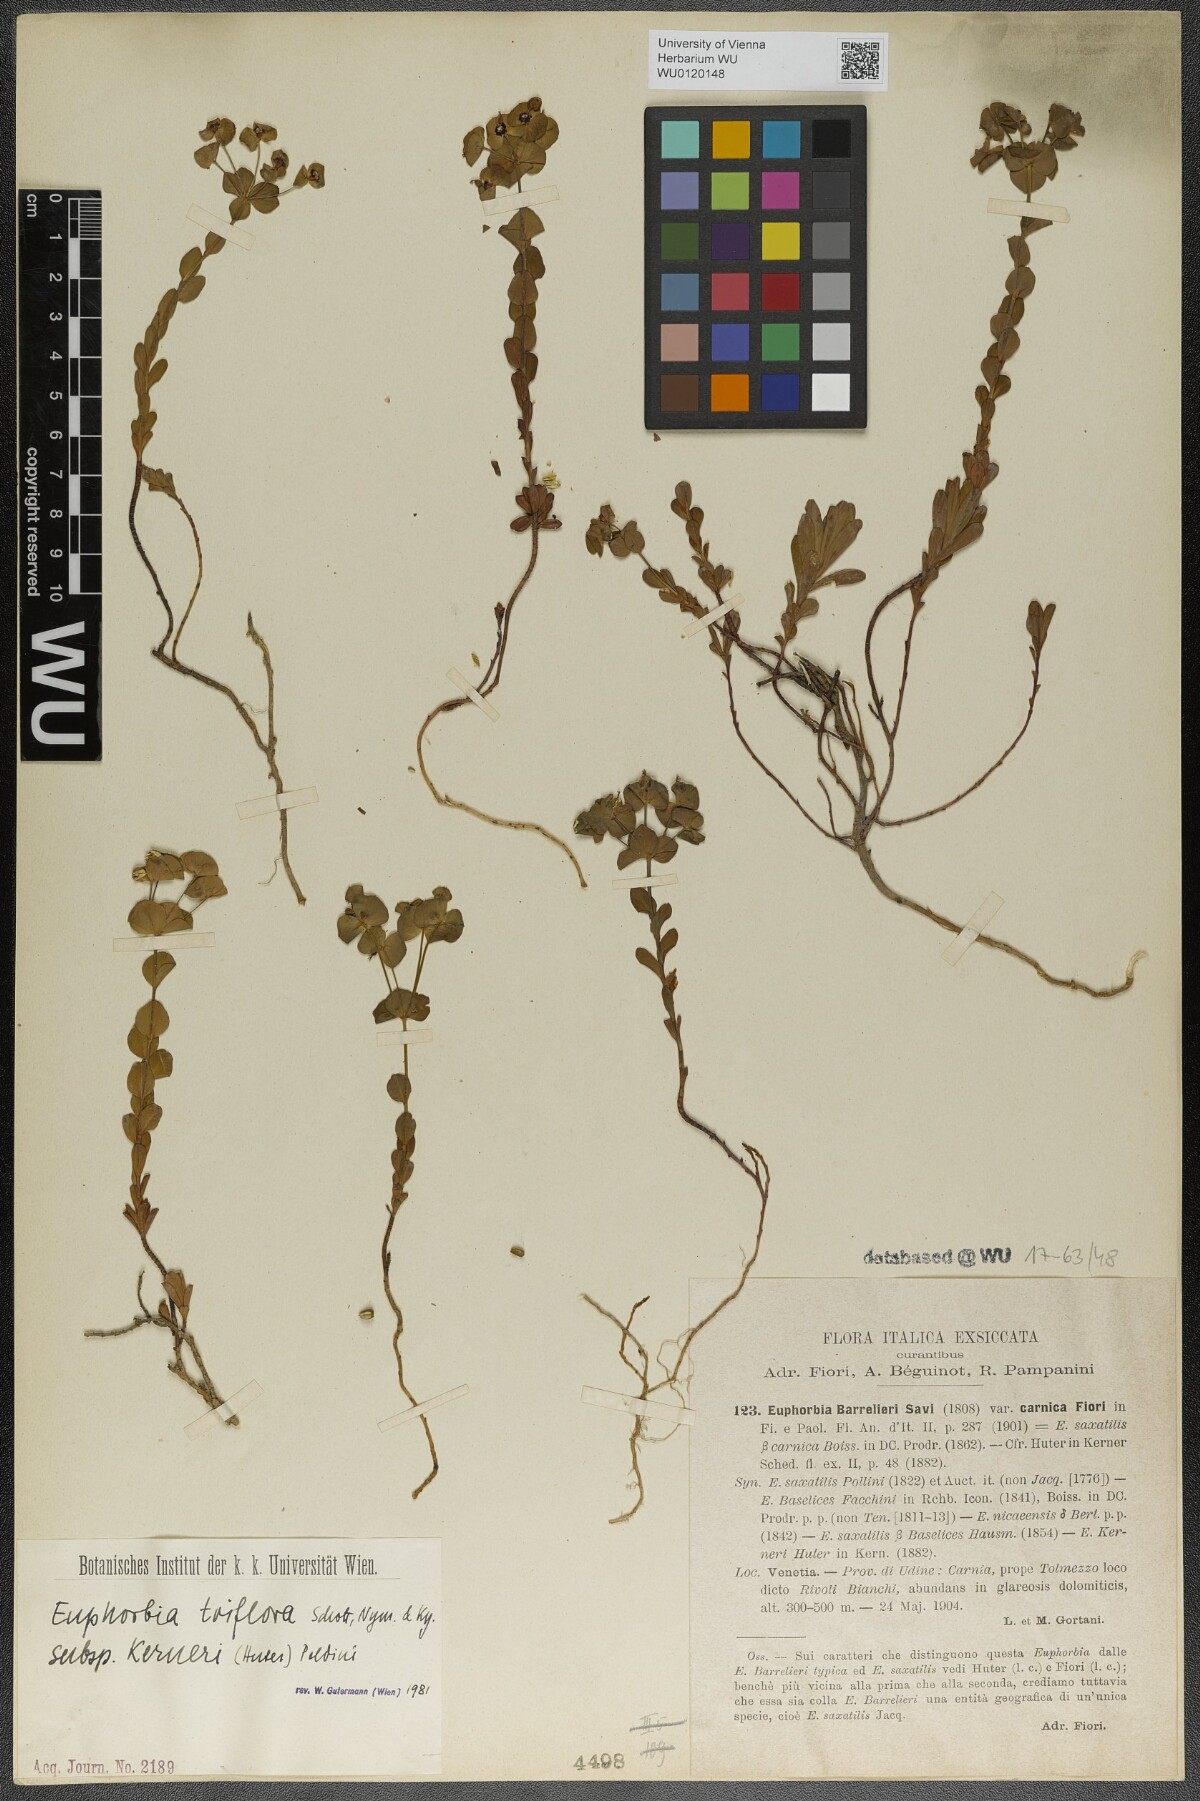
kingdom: Plantae
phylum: Tracheophyta
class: Magnoliopsida
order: Malpighiales
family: Euphorbiaceae
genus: Euphorbia
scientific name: Euphorbia kerneri
